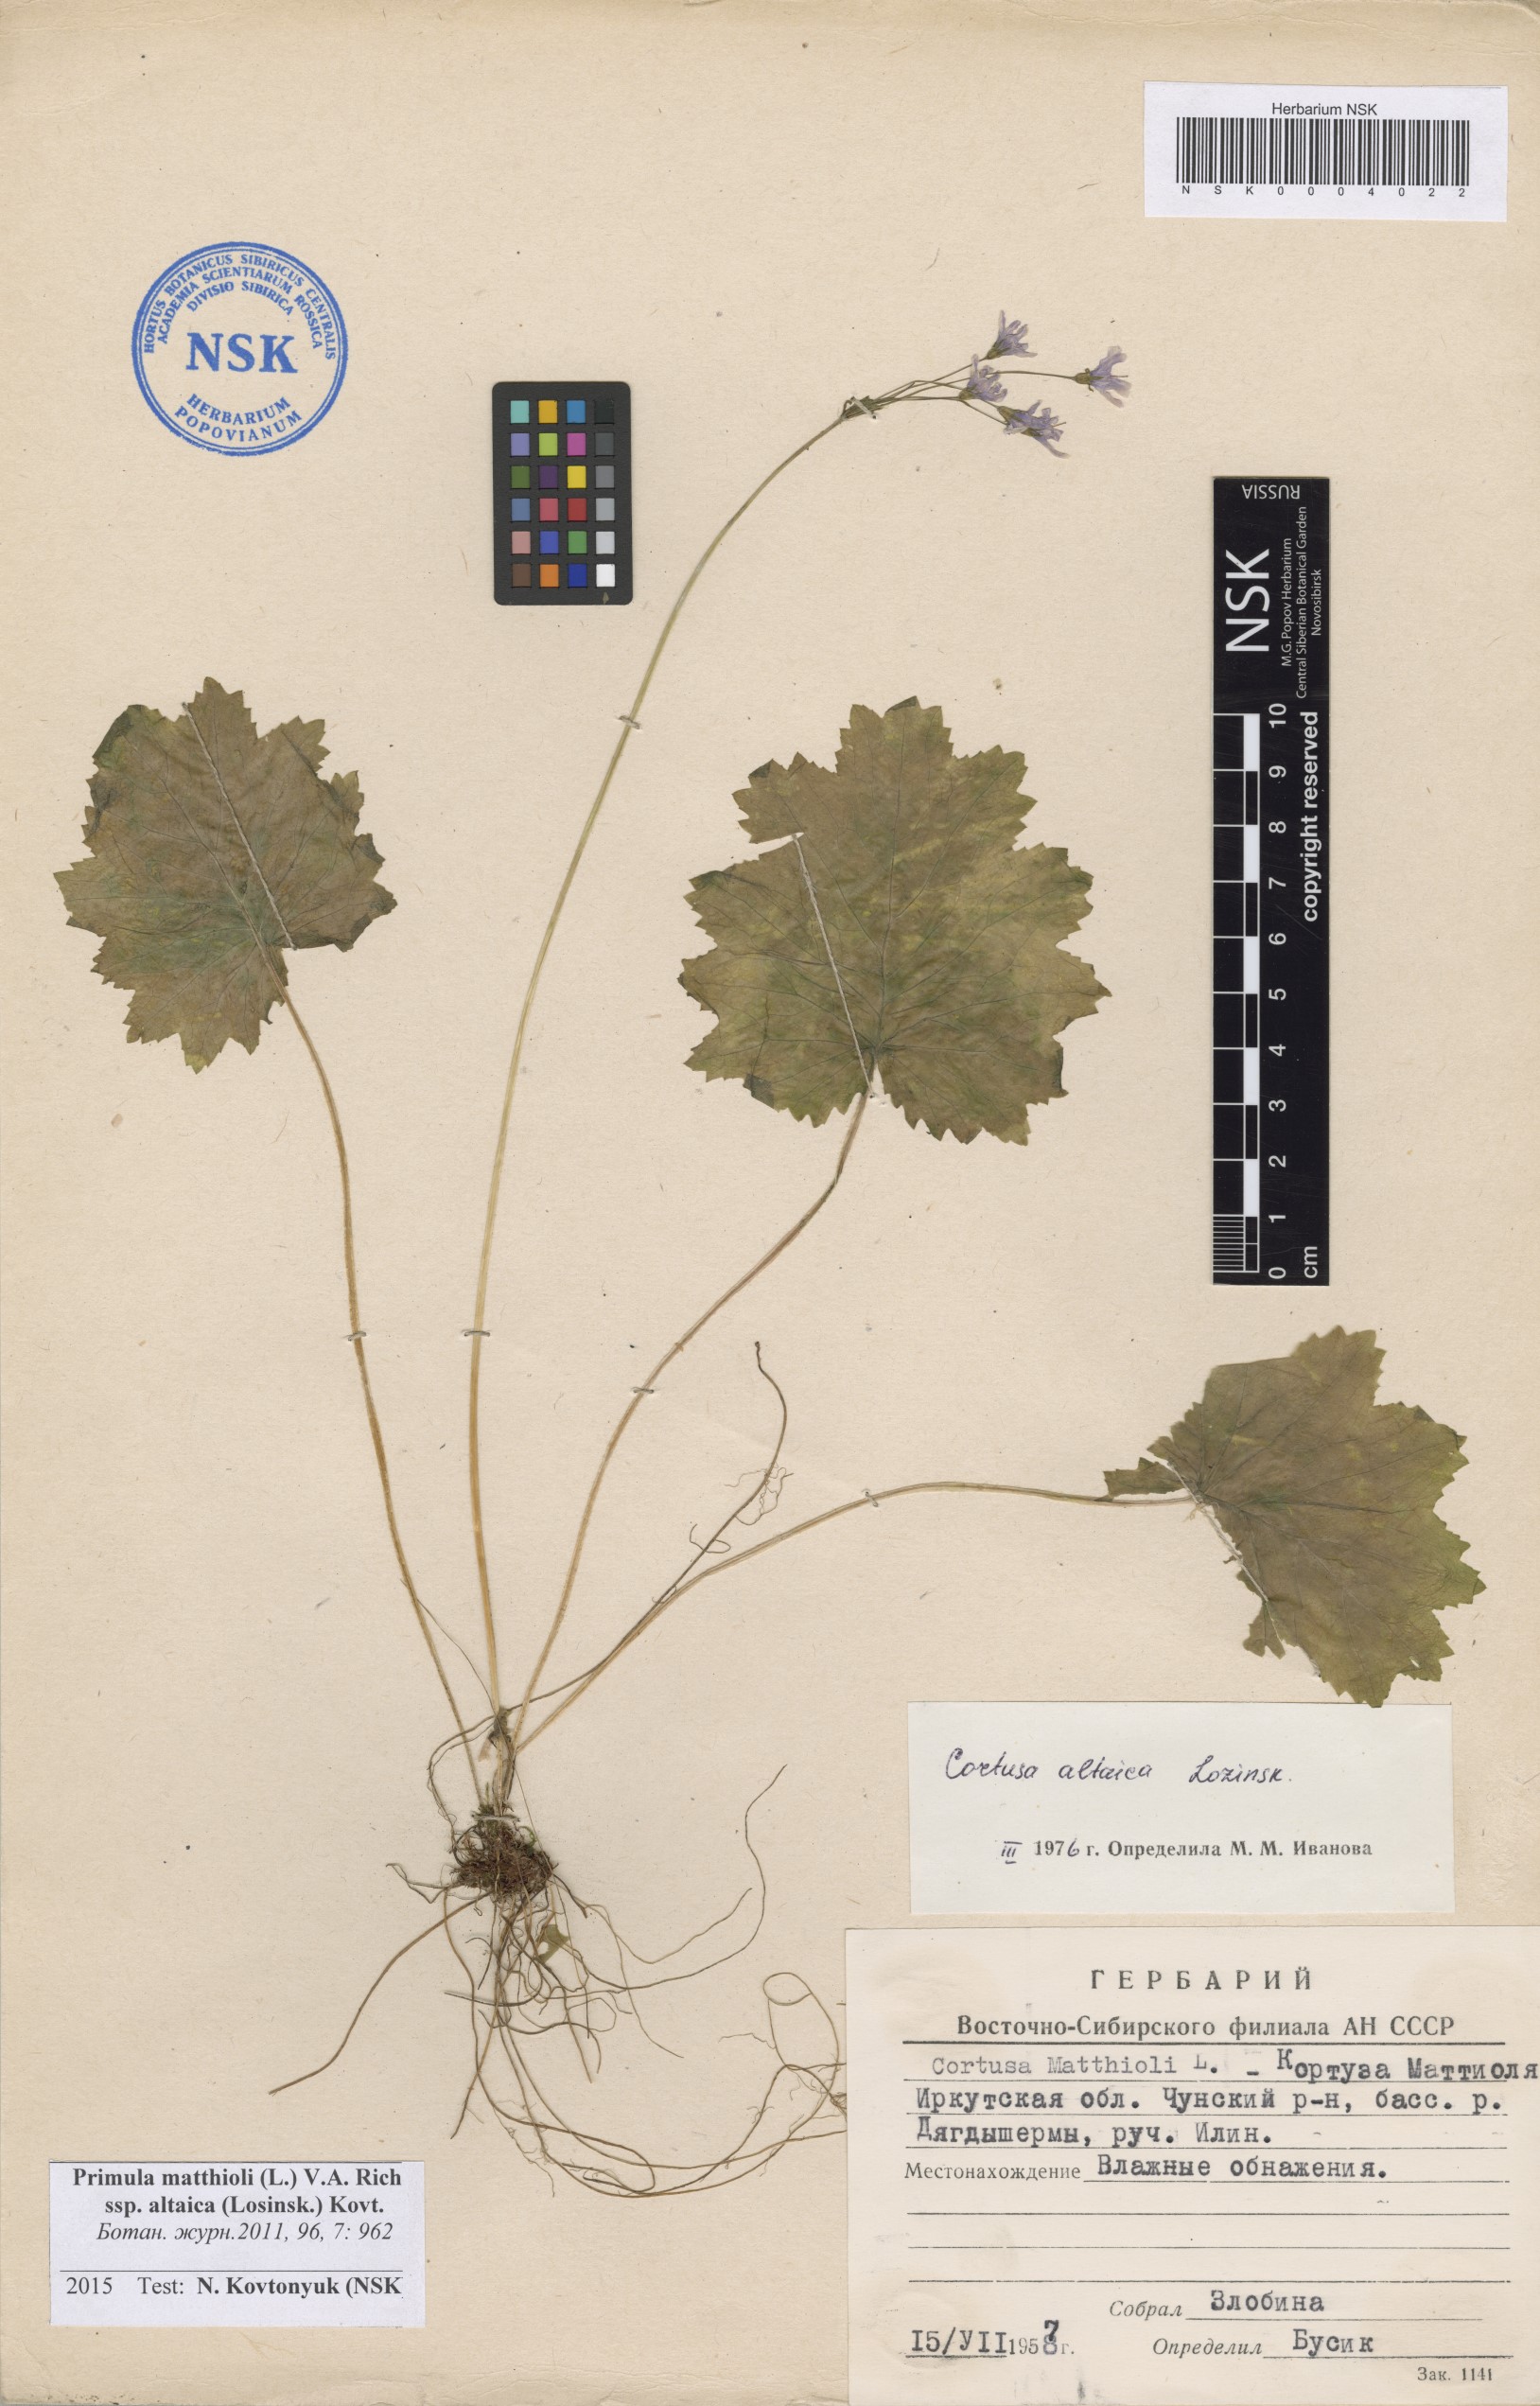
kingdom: Plantae
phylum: Tracheophyta
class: Magnoliopsida
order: Ericales
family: Primulaceae
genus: Primula
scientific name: Primula matthioli
